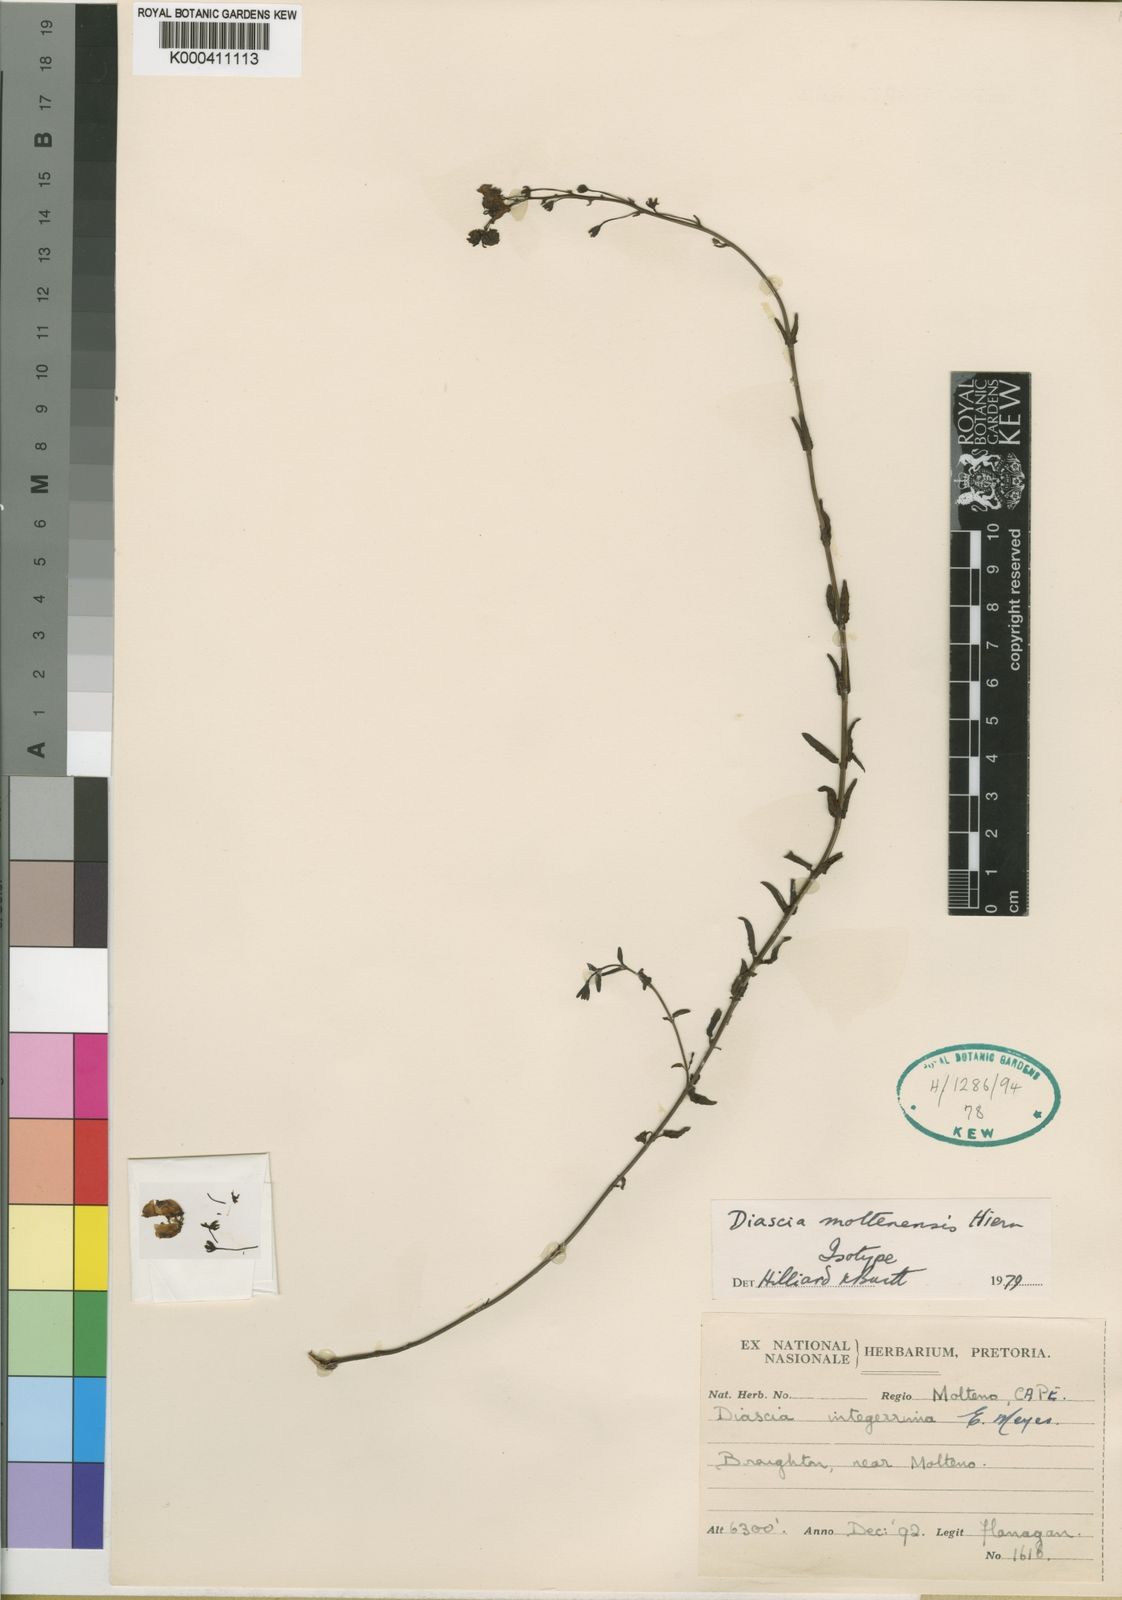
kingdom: Plantae
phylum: Tracheophyta
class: Magnoliopsida
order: Lamiales
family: Scrophulariaceae
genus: Diascia
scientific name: Diascia integerrima
